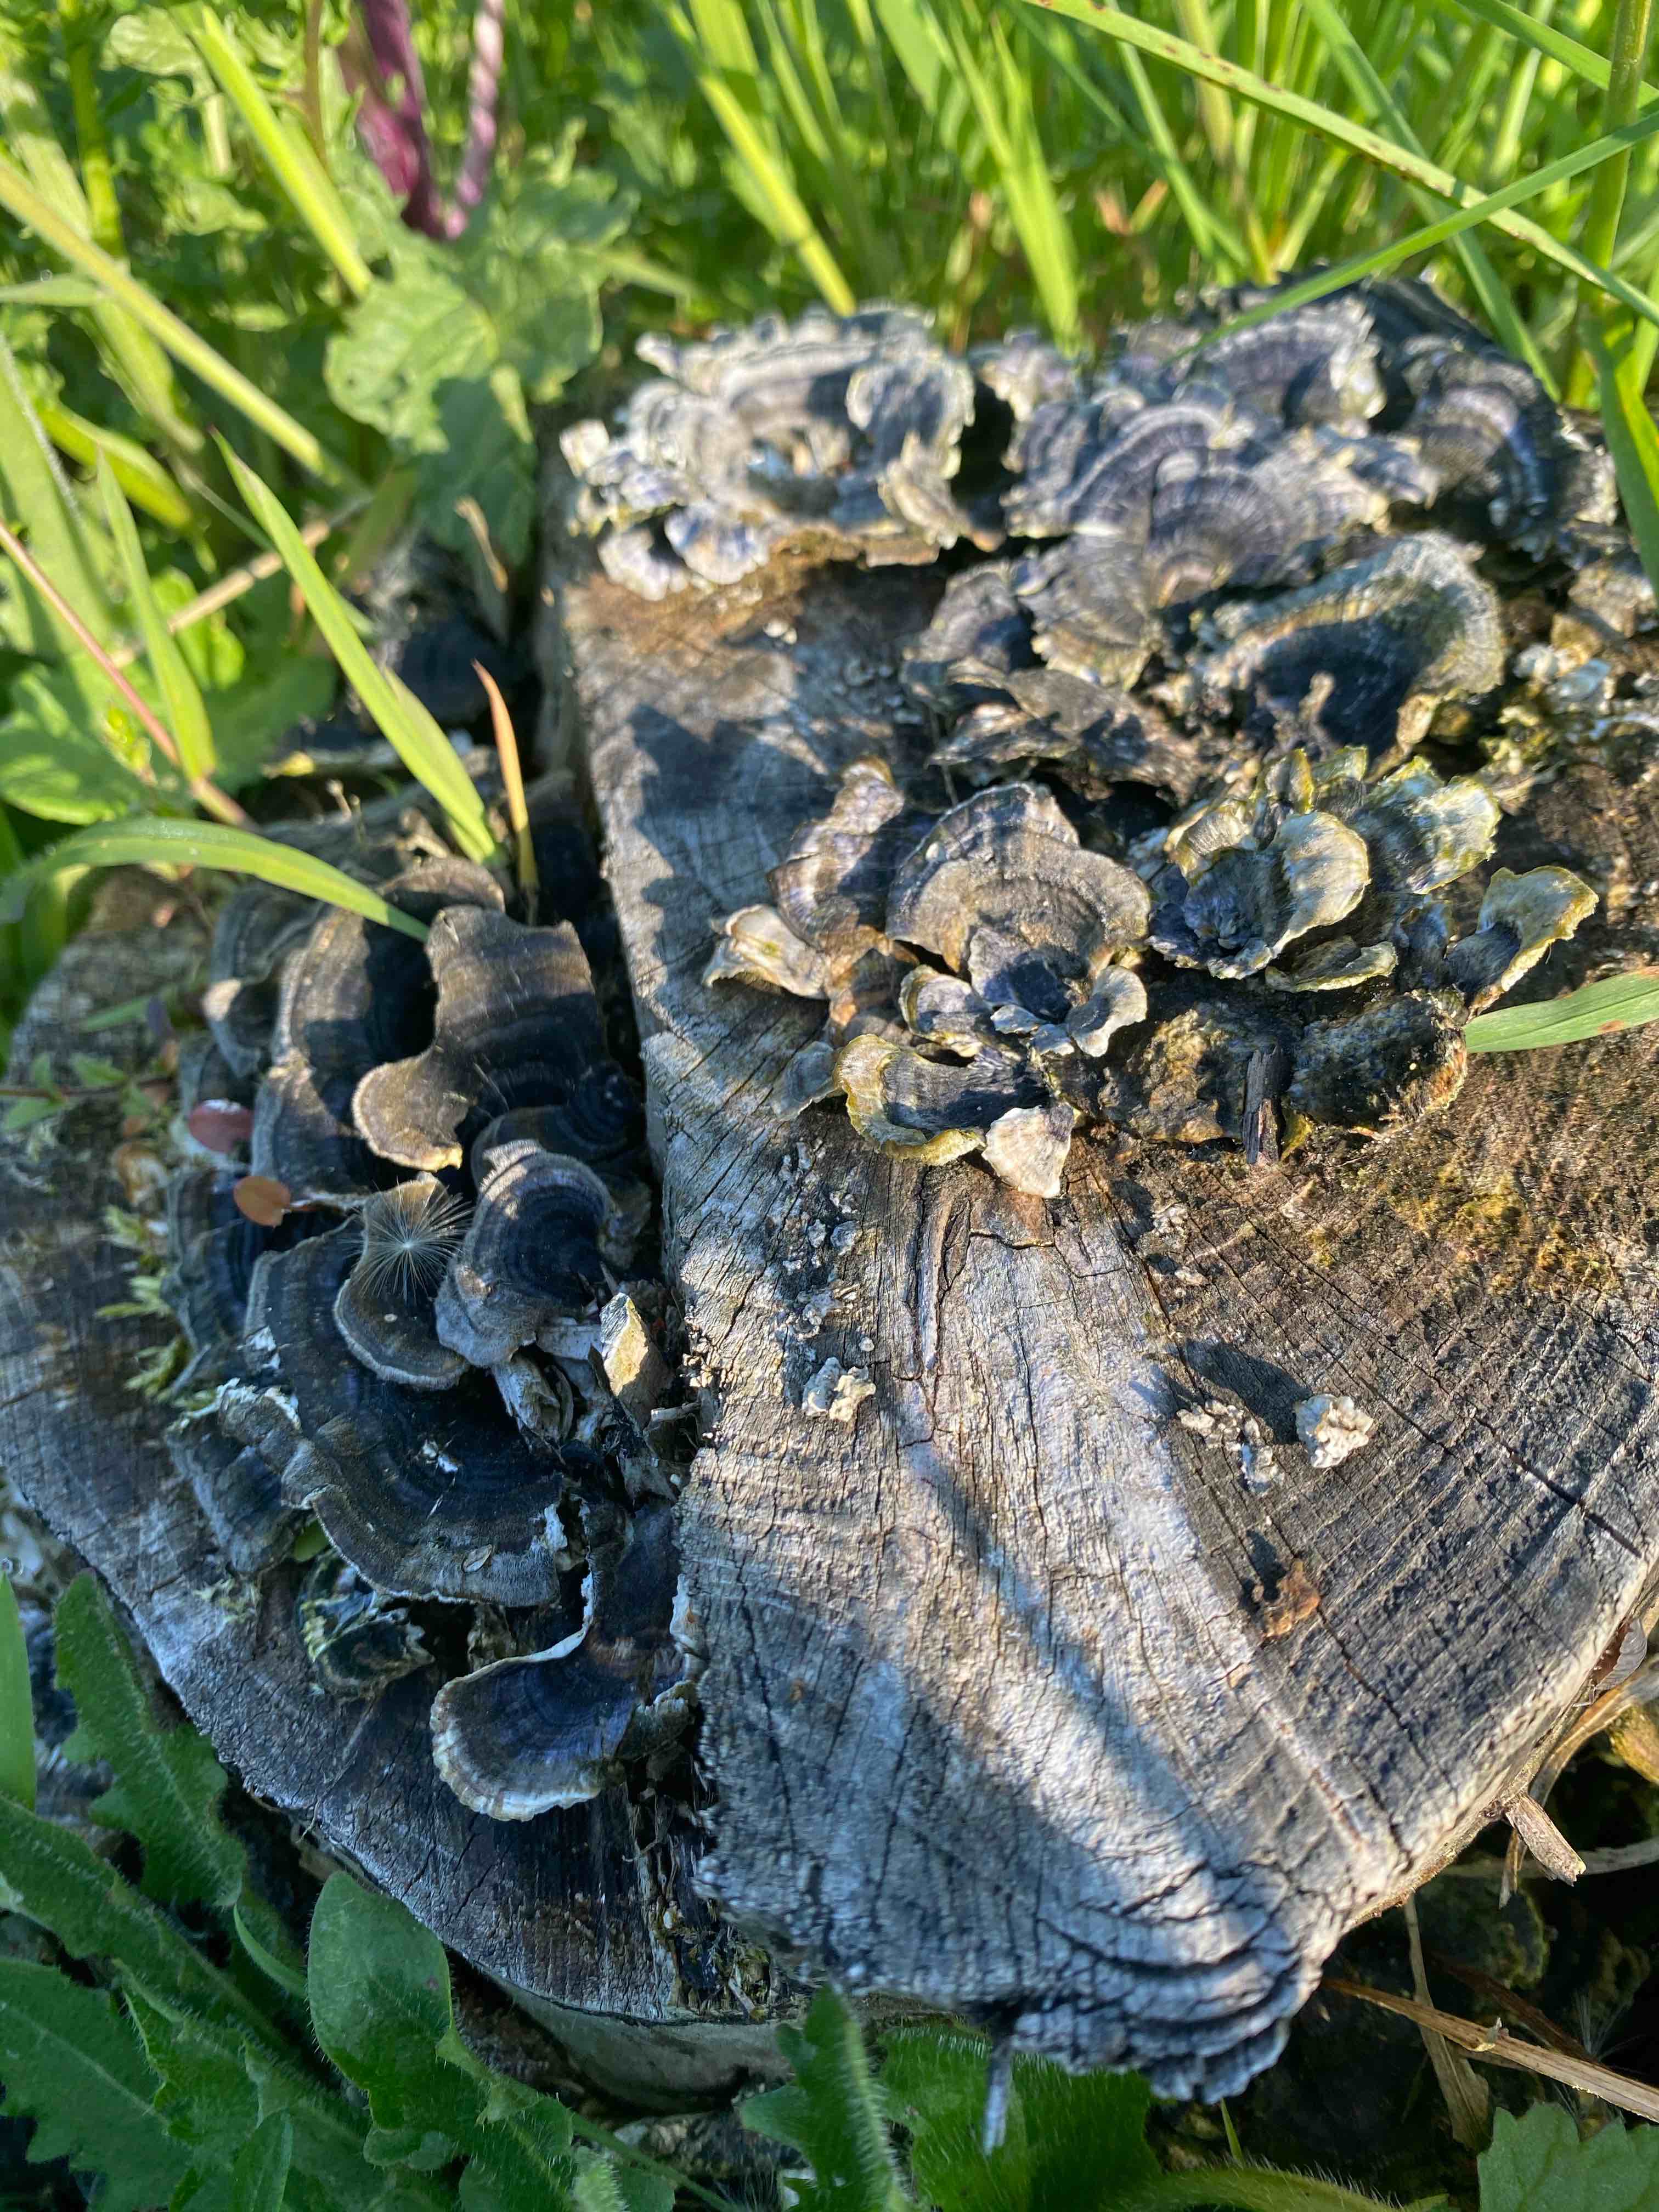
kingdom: Fungi
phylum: Basidiomycota
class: Agaricomycetes
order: Polyporales
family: Polyporaceae
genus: Trametes
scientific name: Trametes versicolor
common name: broget læderporesvamp
